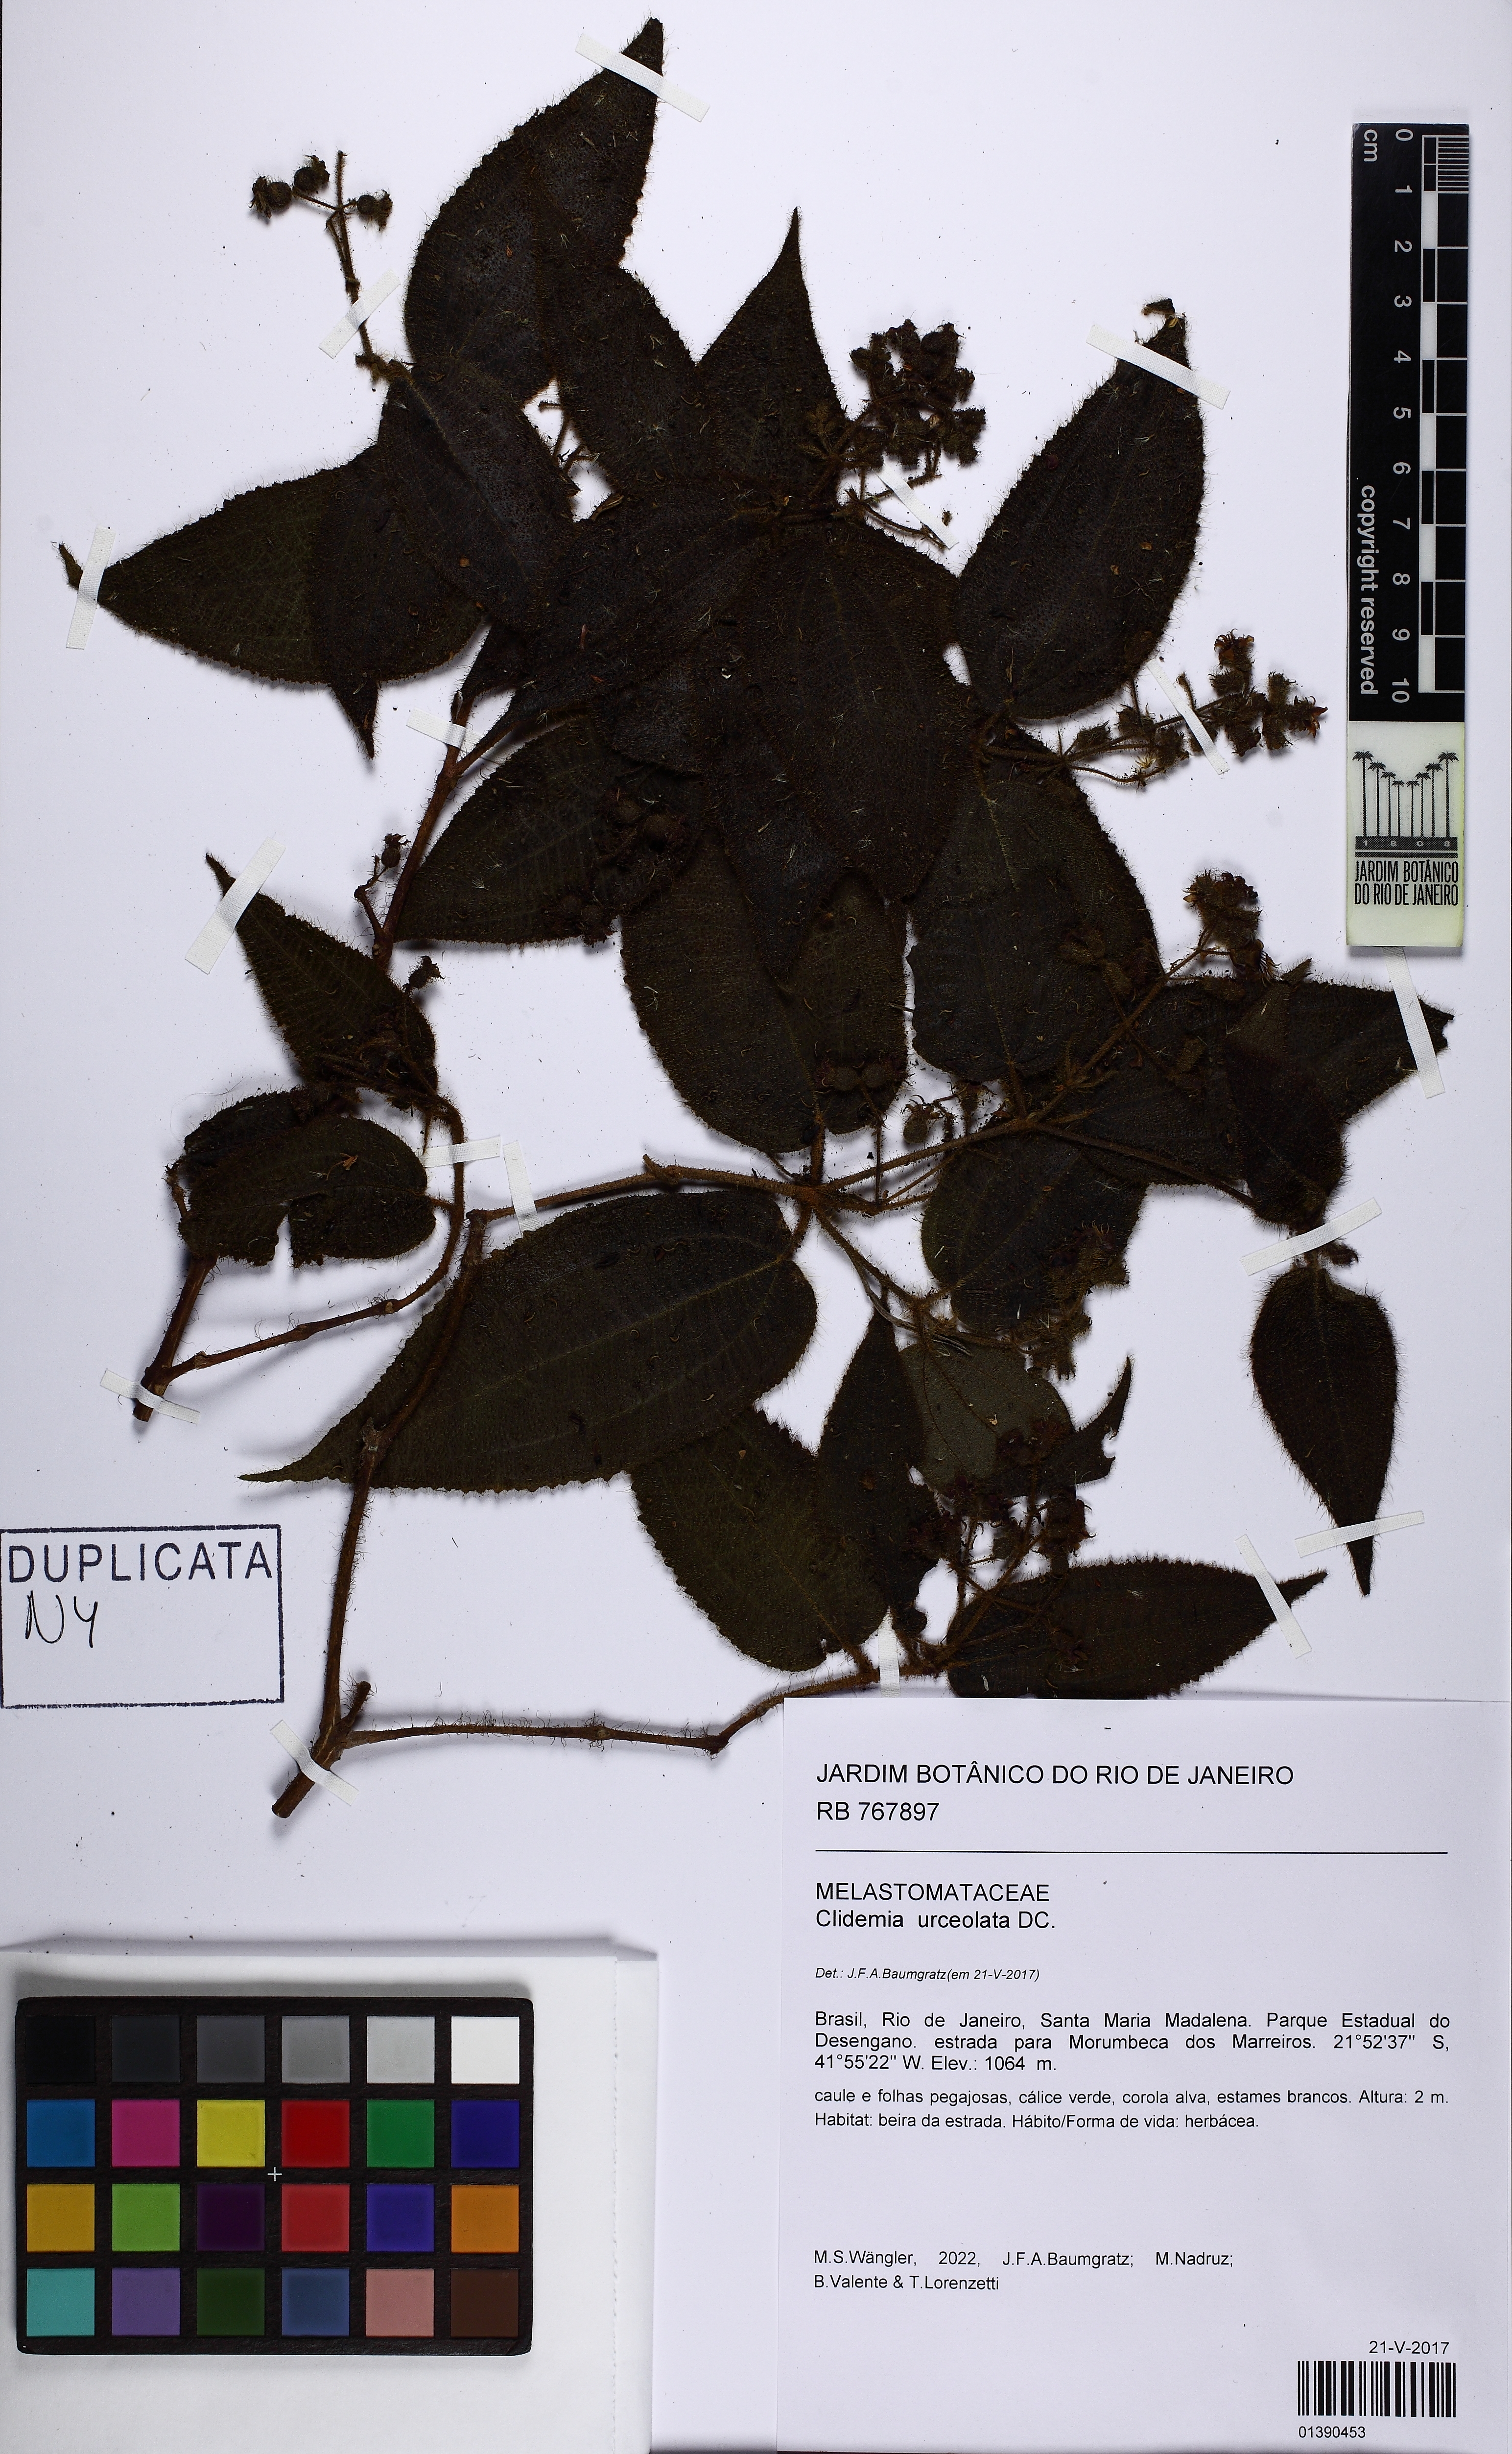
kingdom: Plantae
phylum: Tracheophyta
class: Magnoliopsida
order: Myrtales
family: Melastomataceae
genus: Miconia
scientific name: Miconia neourceolata
